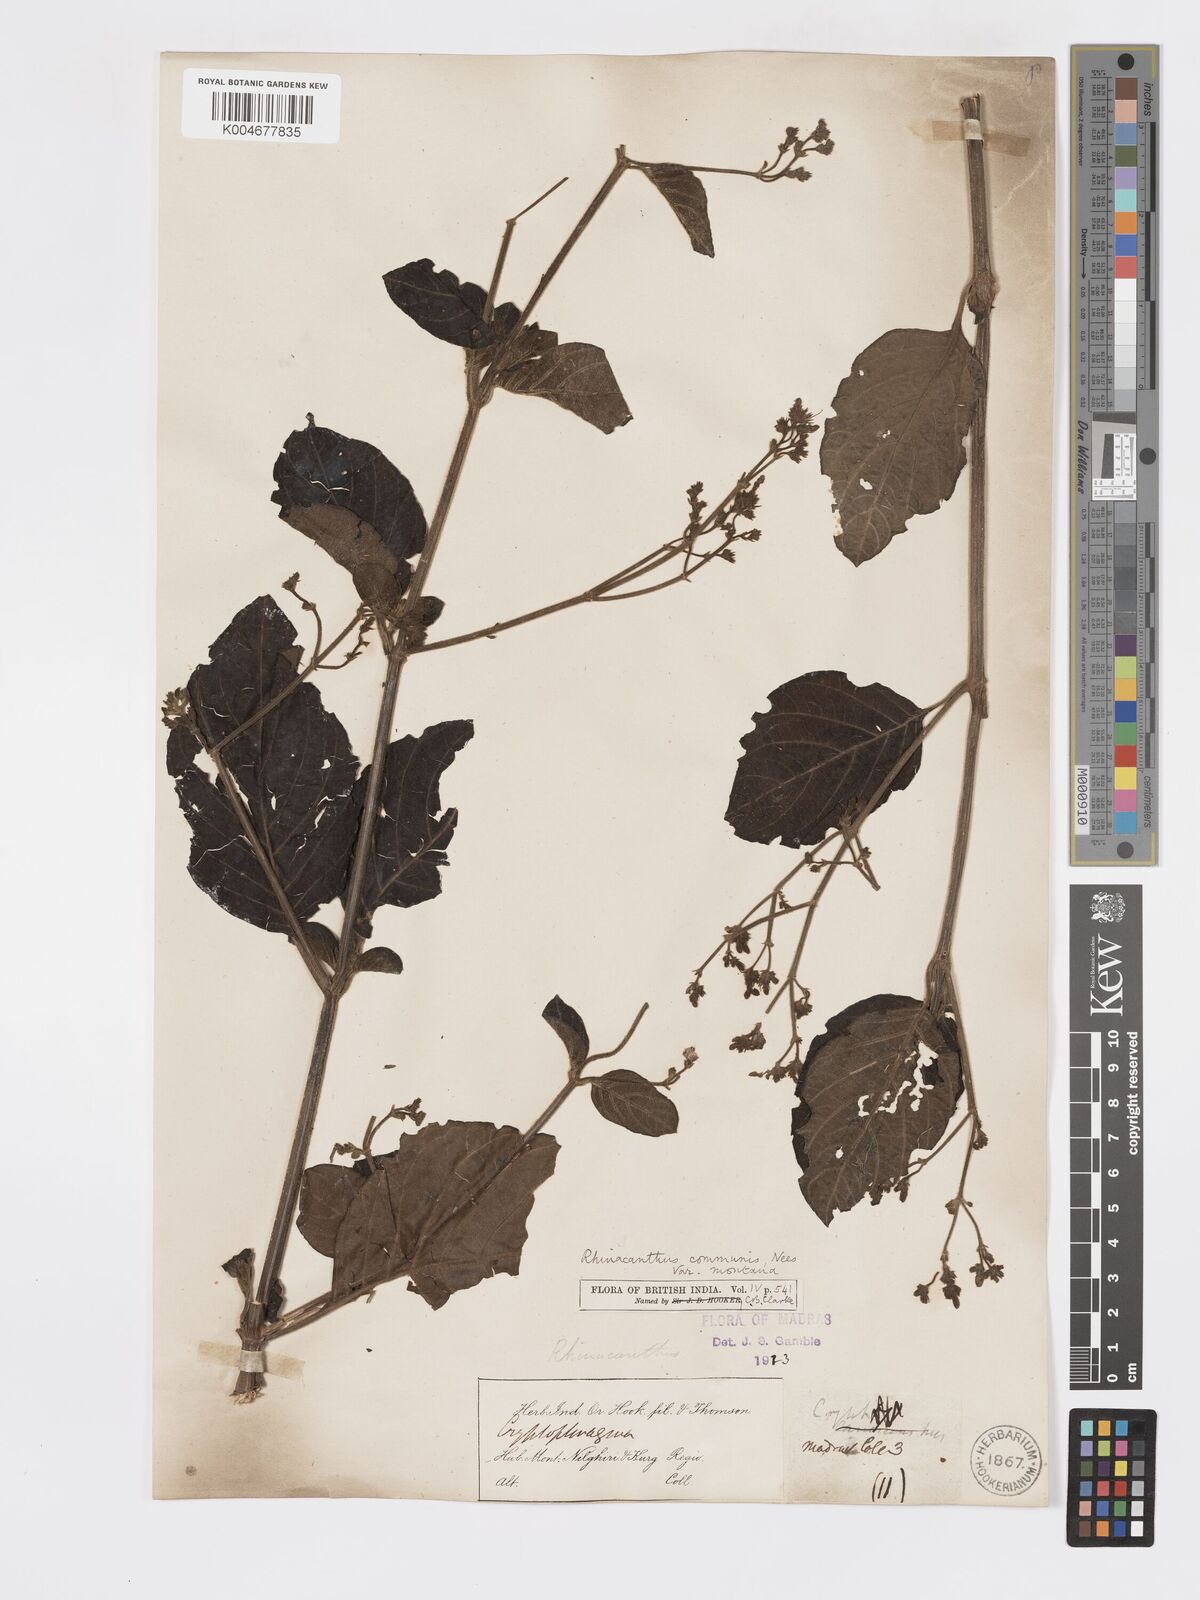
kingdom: Plantae
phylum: Tracheophyta
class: Magnoliopsida
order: Lamiales
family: Acanthaceae
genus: Rhinacanthus
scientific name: Rhinacanthus nasutus
